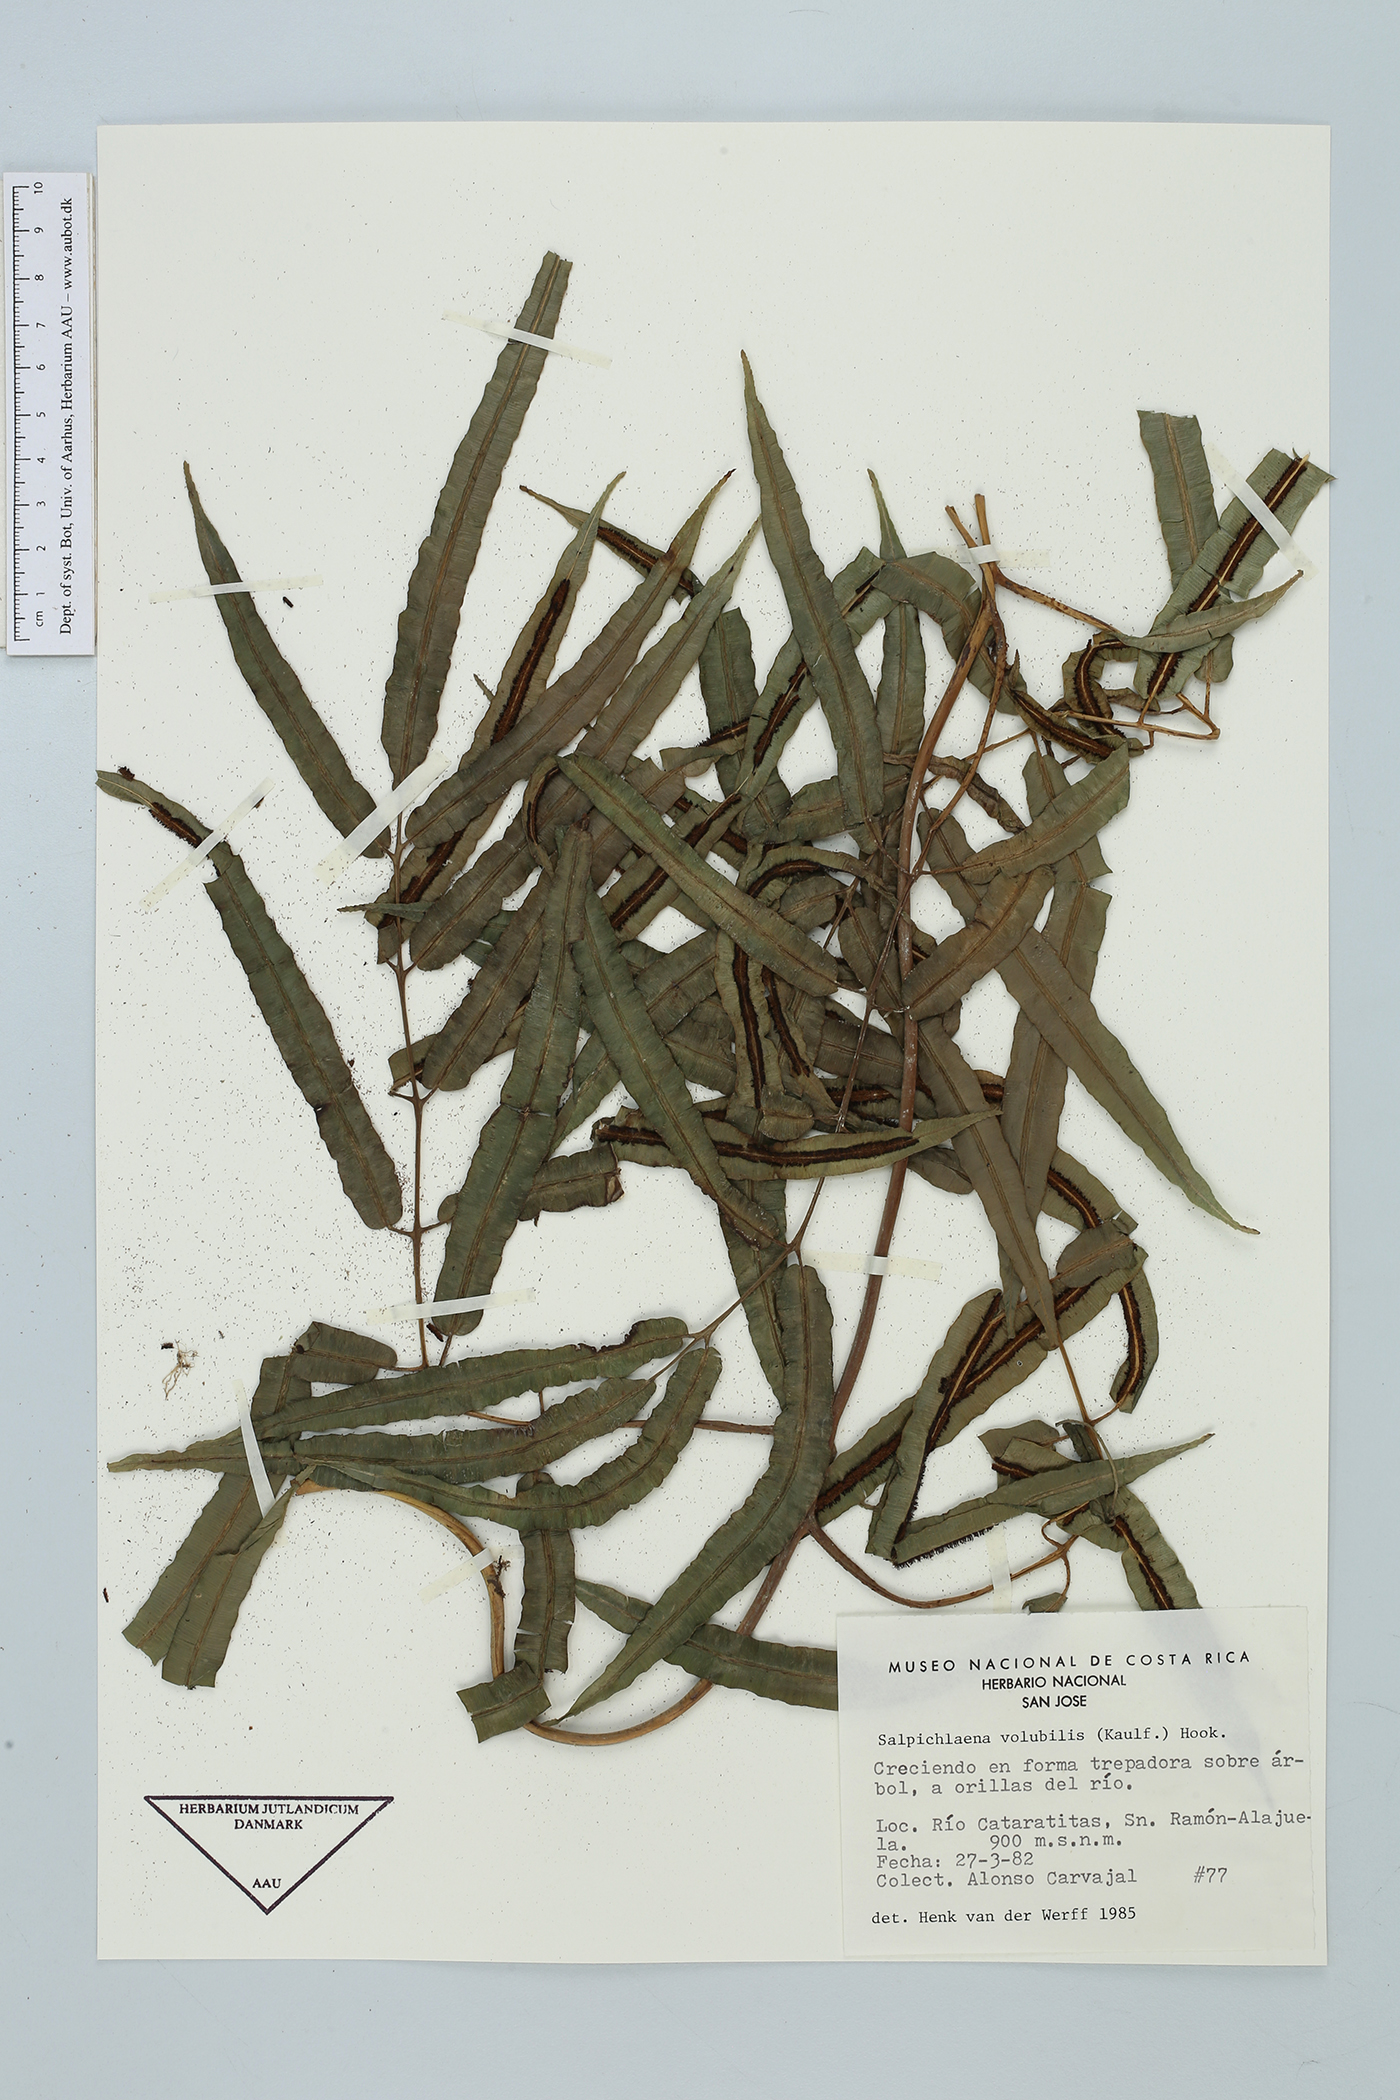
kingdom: Plantae
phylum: Tracheophyta
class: Polypodiopsida
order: Polypodiales
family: Blechnaceae
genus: Salpichlaena
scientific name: Salpichlaena papyrus
